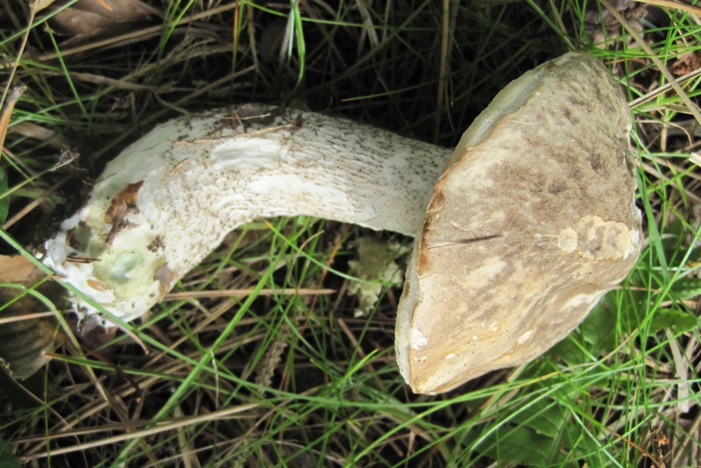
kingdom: Fungi
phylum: Basidiomycota
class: Agaricomycetes
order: Boletales
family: Boletaceae
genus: Leccinum
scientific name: Leccinum variicolor
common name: flammet skælrørhat
